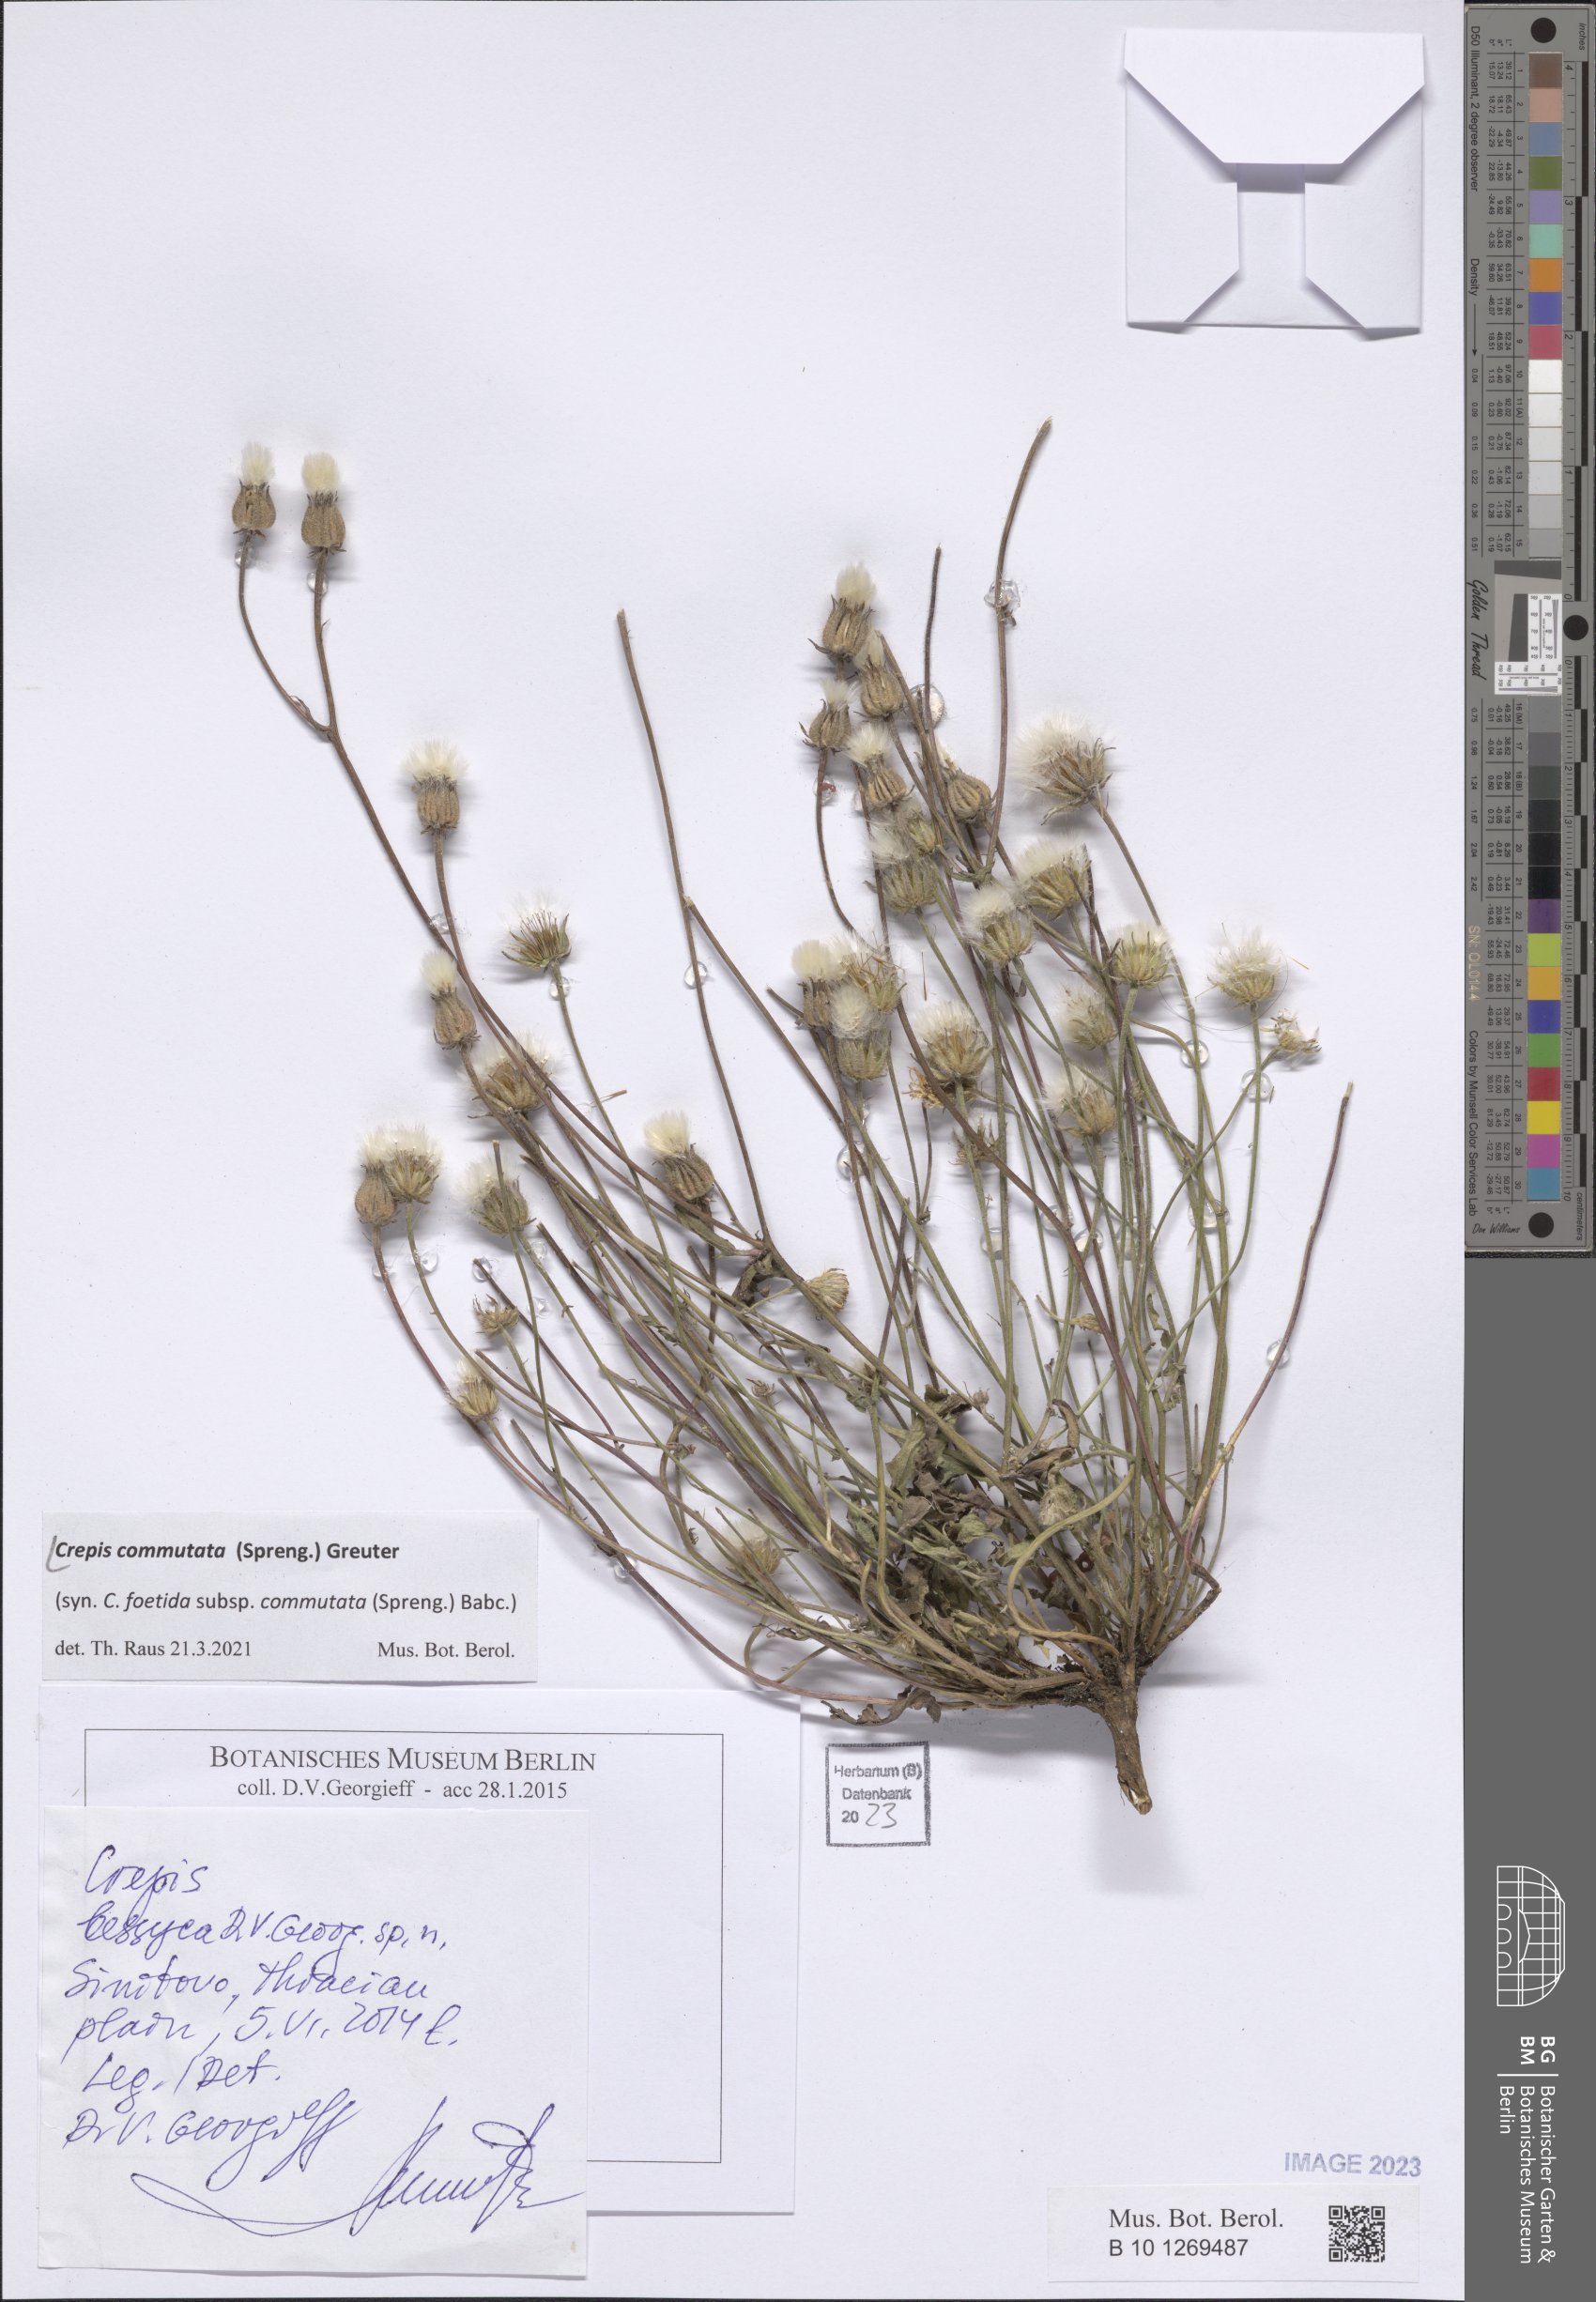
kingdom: Plantae
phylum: Tracheophyta
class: Magnoliopsida
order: Asterales
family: Asteraceae
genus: Crepis
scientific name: Crepis commutata
